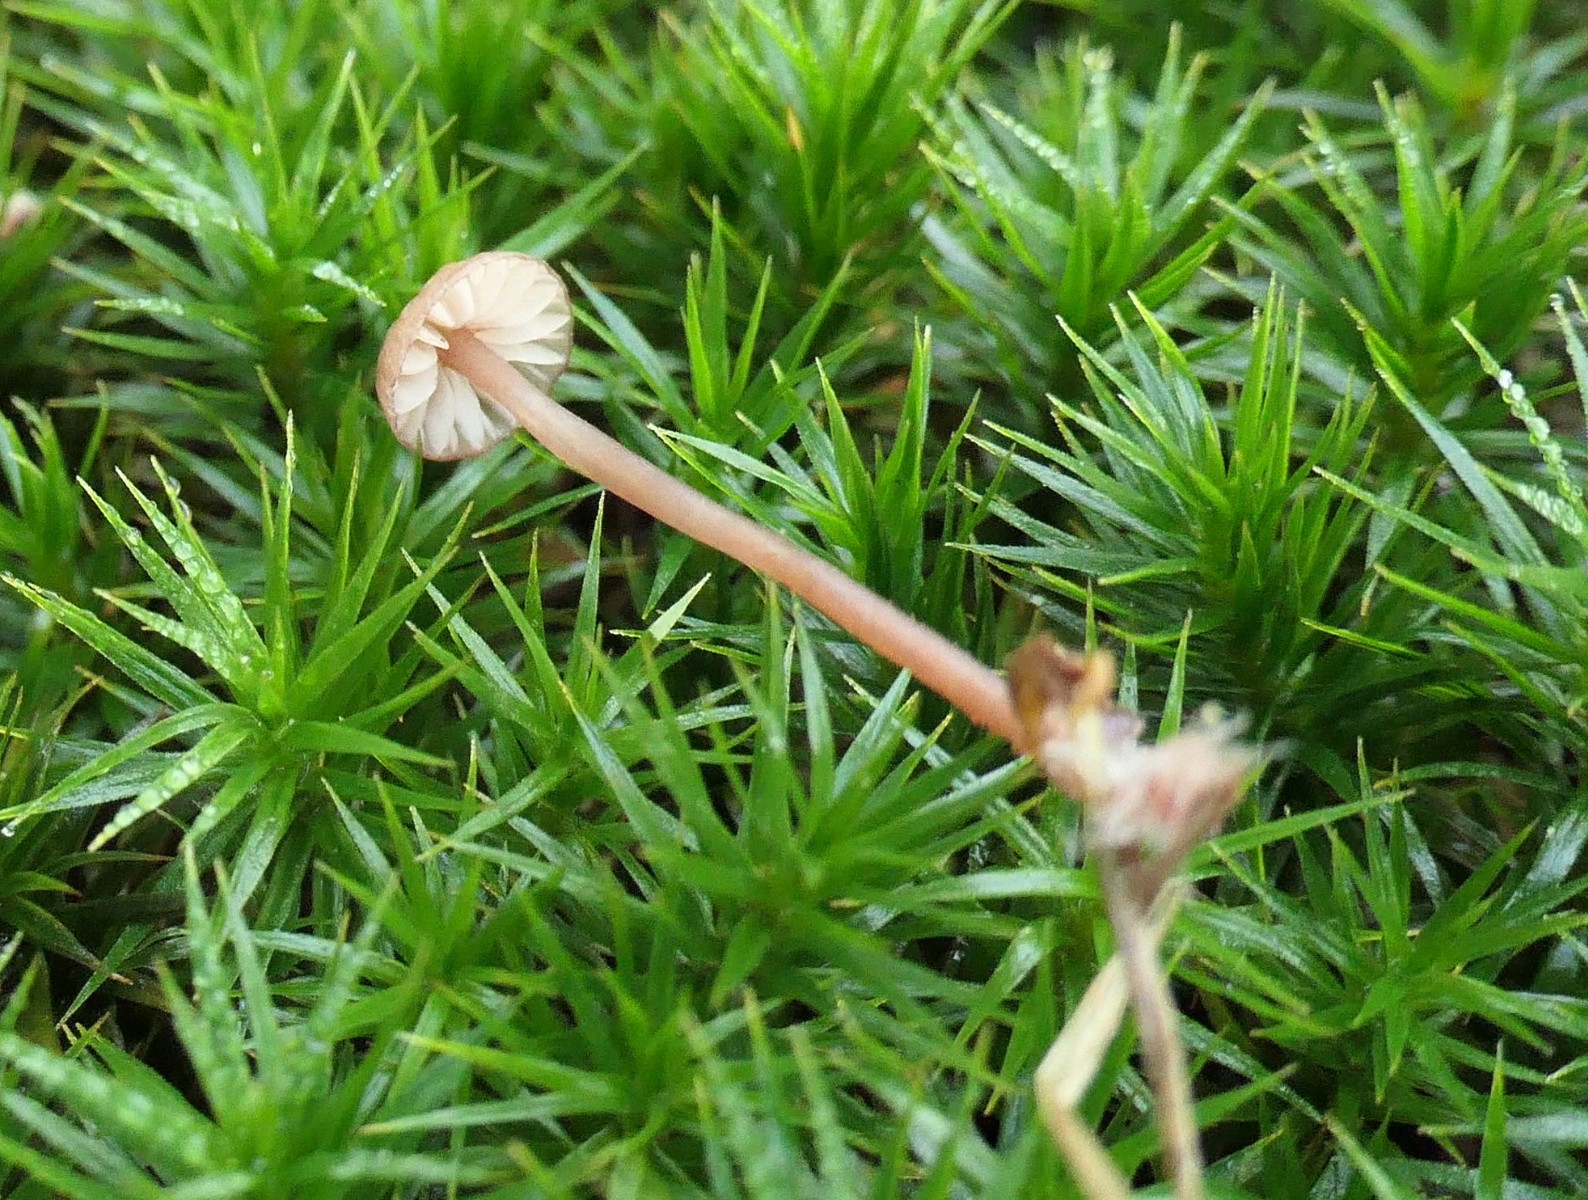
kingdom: Fungi
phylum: Basidiomycota
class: Agaricomycetes
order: Agaricales
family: Mycenaceae
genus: Mycena
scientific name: Mycena sanguinolenta
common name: rødmælket huesvamp
